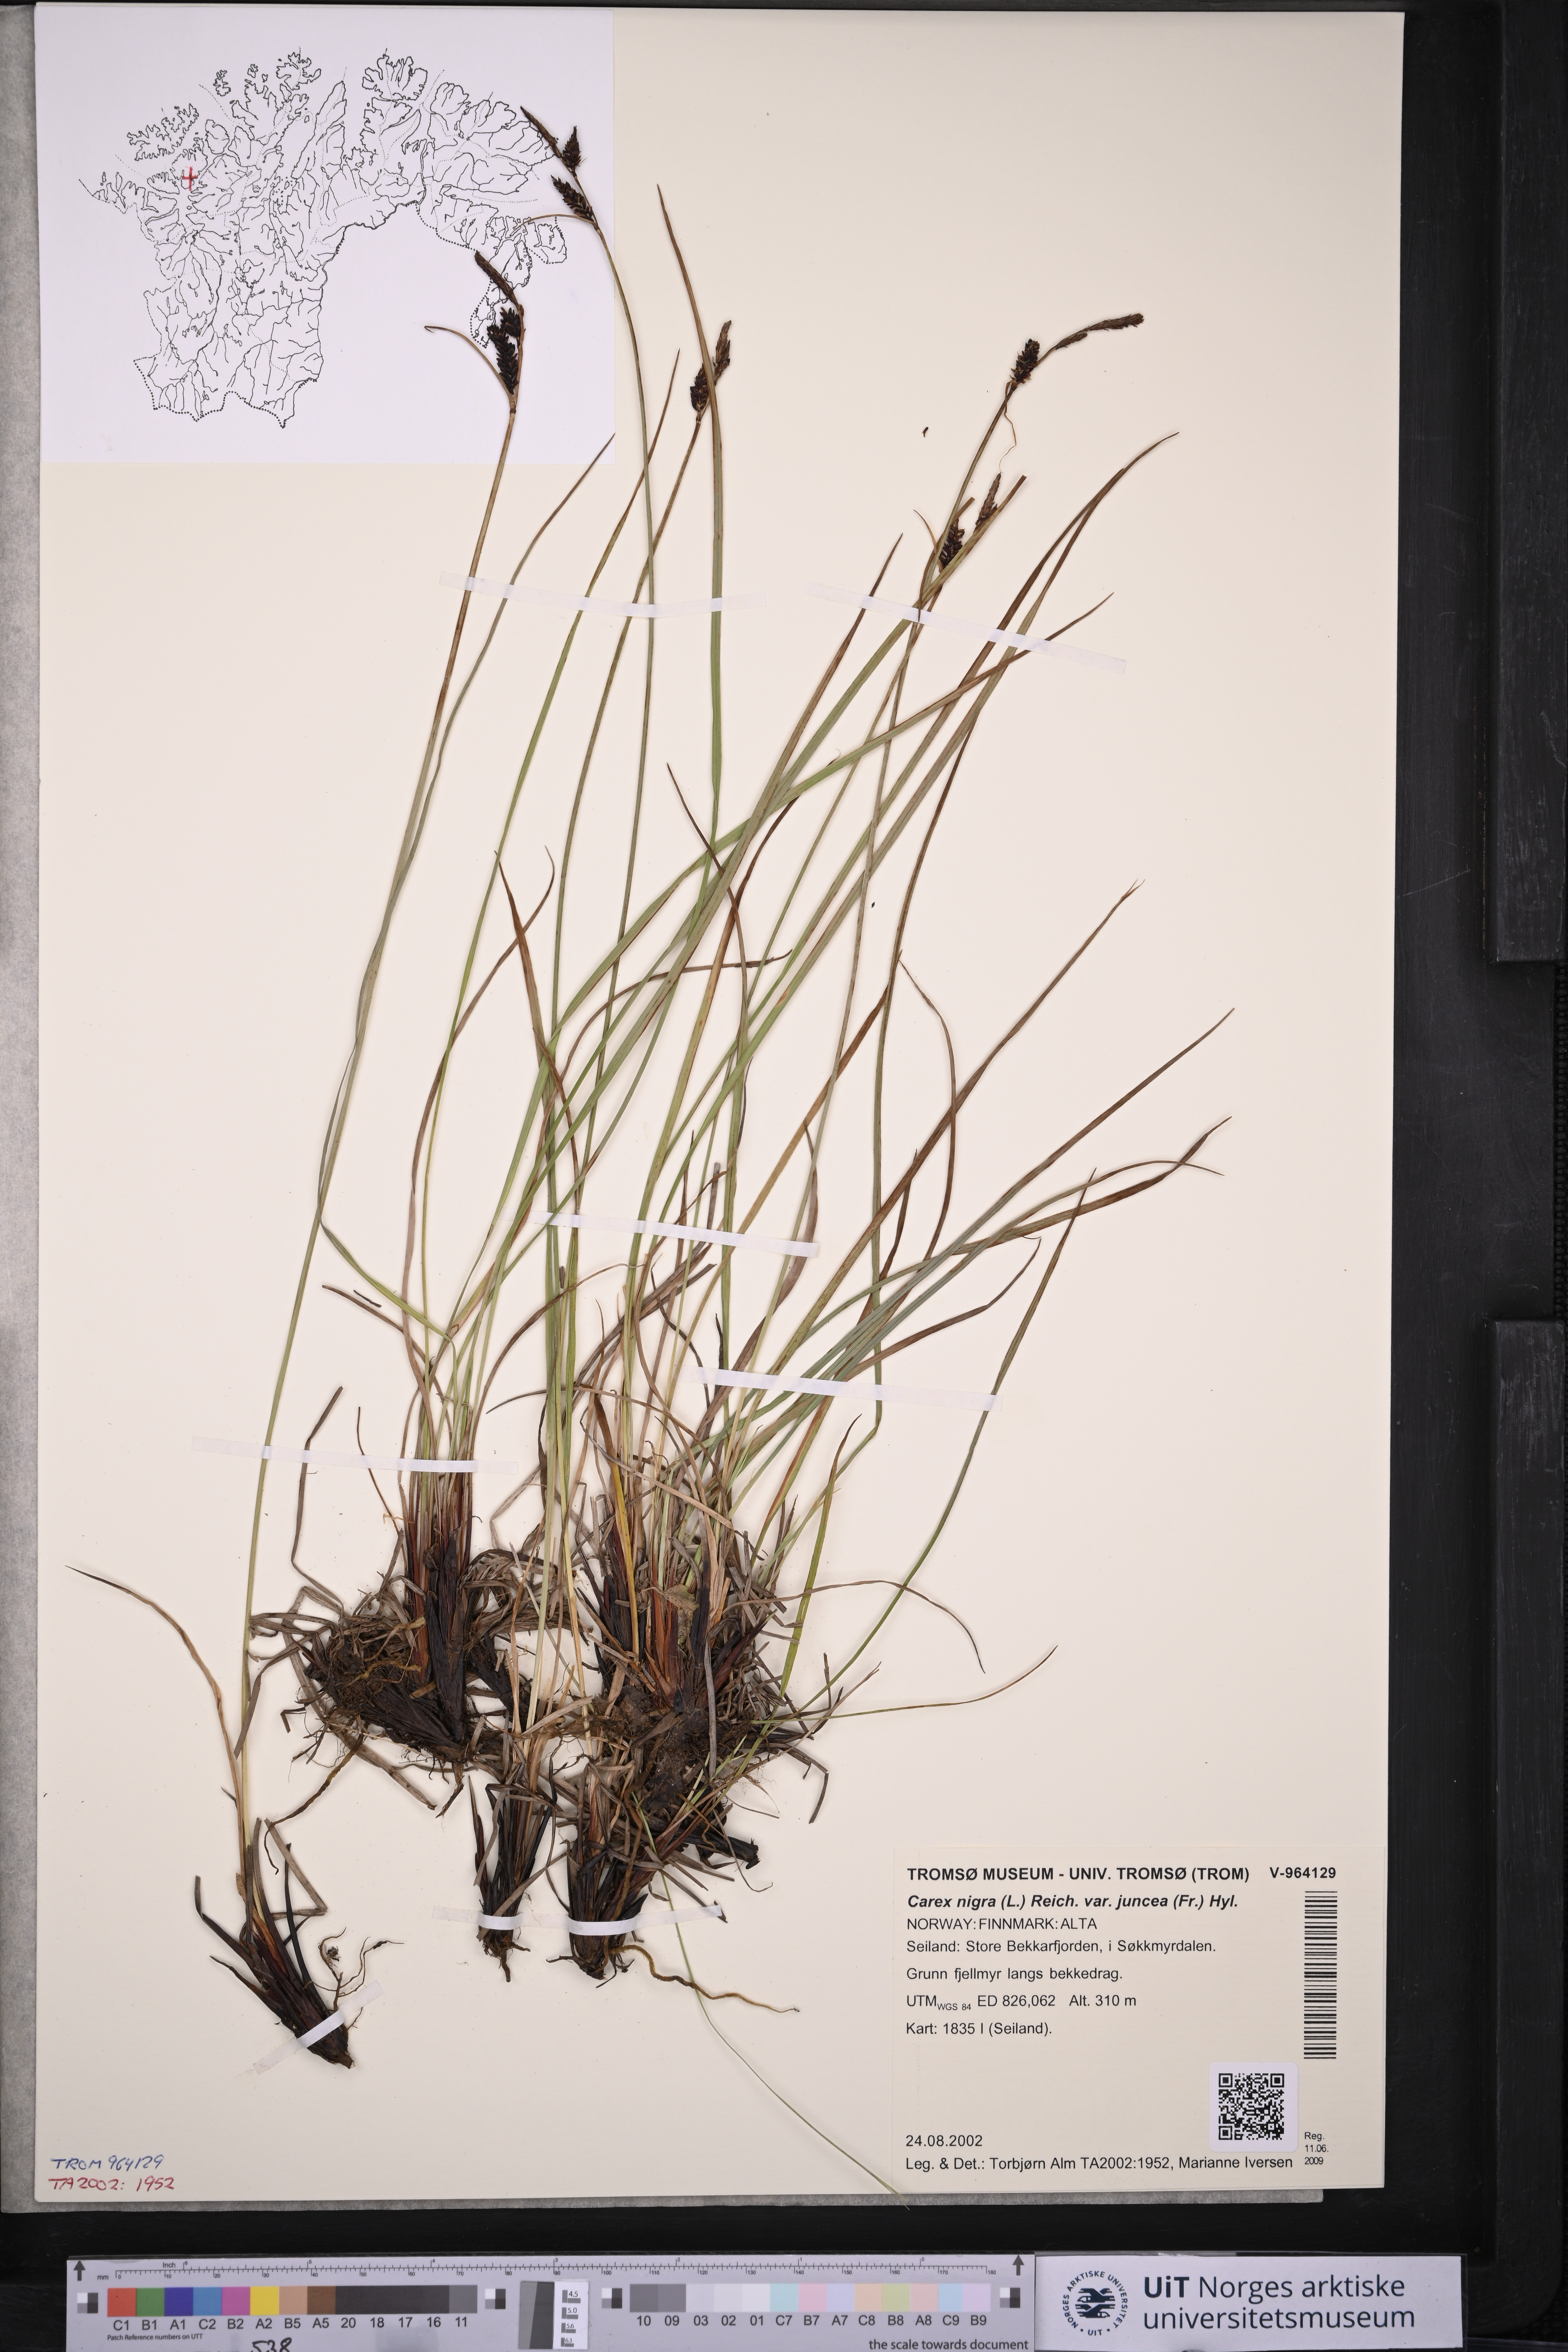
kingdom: Plantae
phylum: Tracheophyta
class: Liliopsida
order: Poales
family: Cyperaceae
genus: Carex
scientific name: Carex nigra
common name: Common sedge
